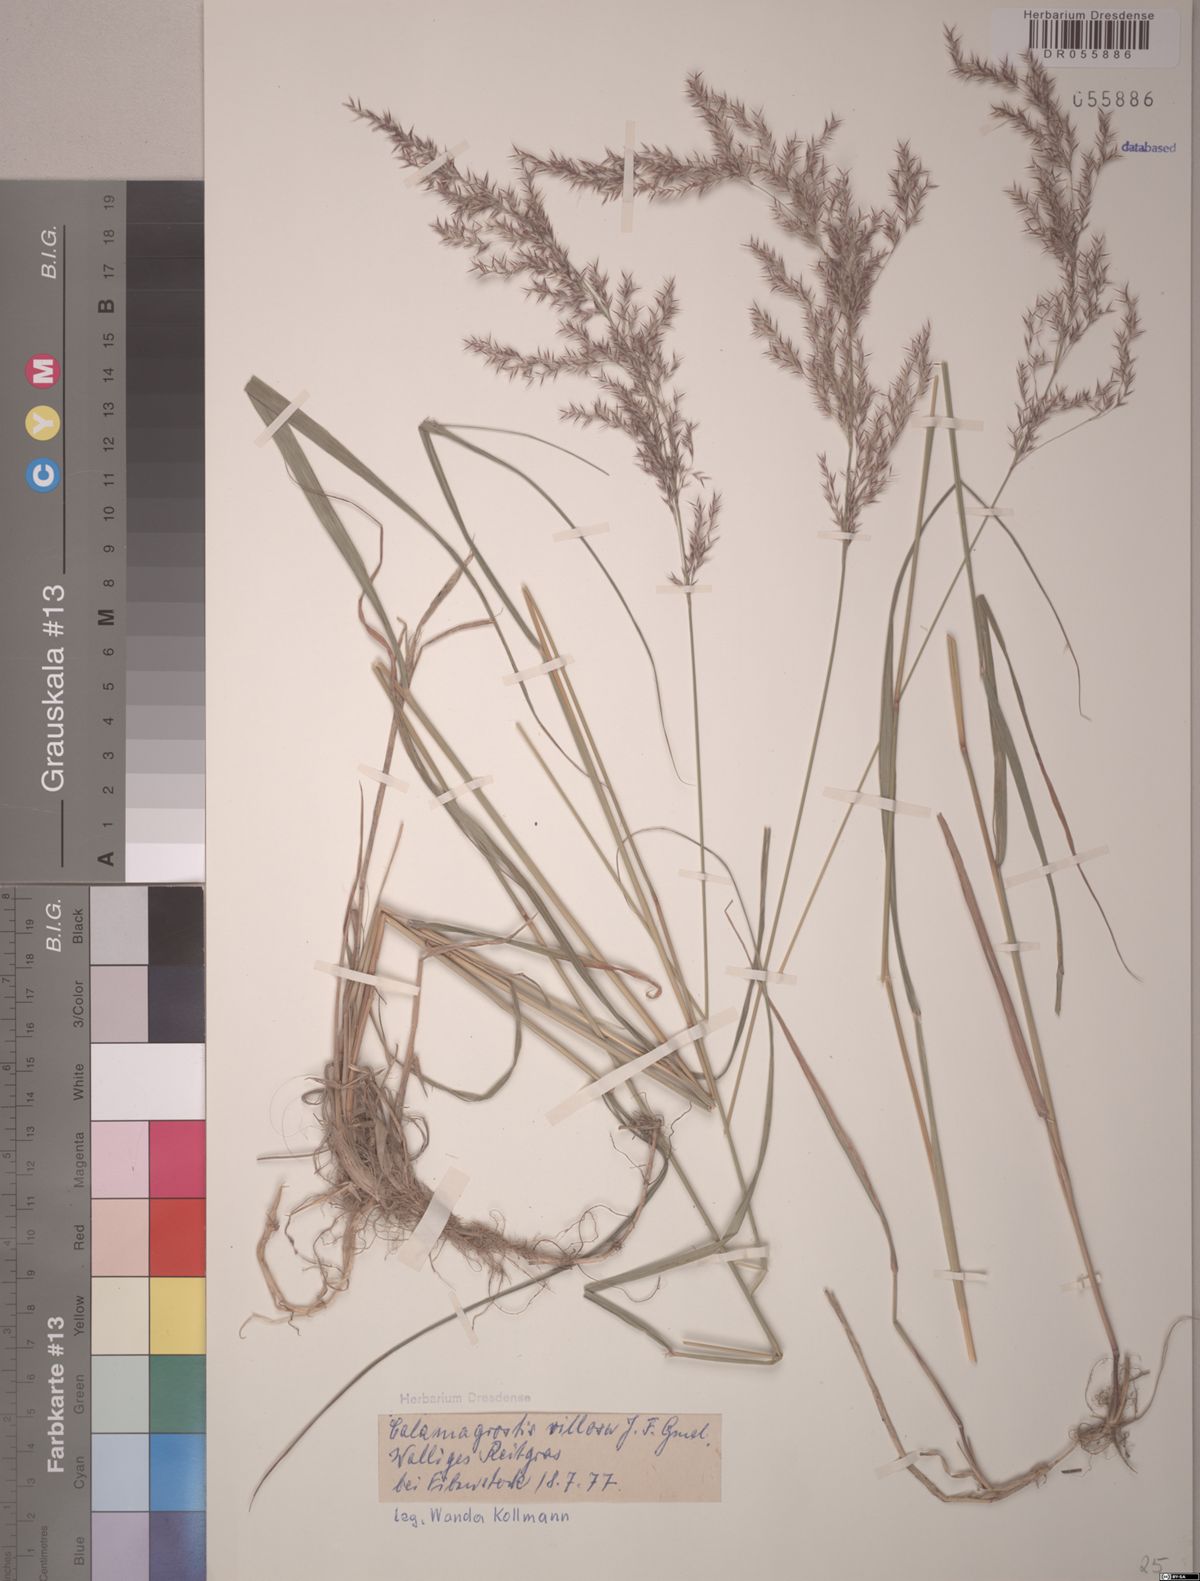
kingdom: Plantae
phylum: Tracheophyta
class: Liliopsida
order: Poales
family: Poaceae
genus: Calamagrostis
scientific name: Calamagrostis villosa
